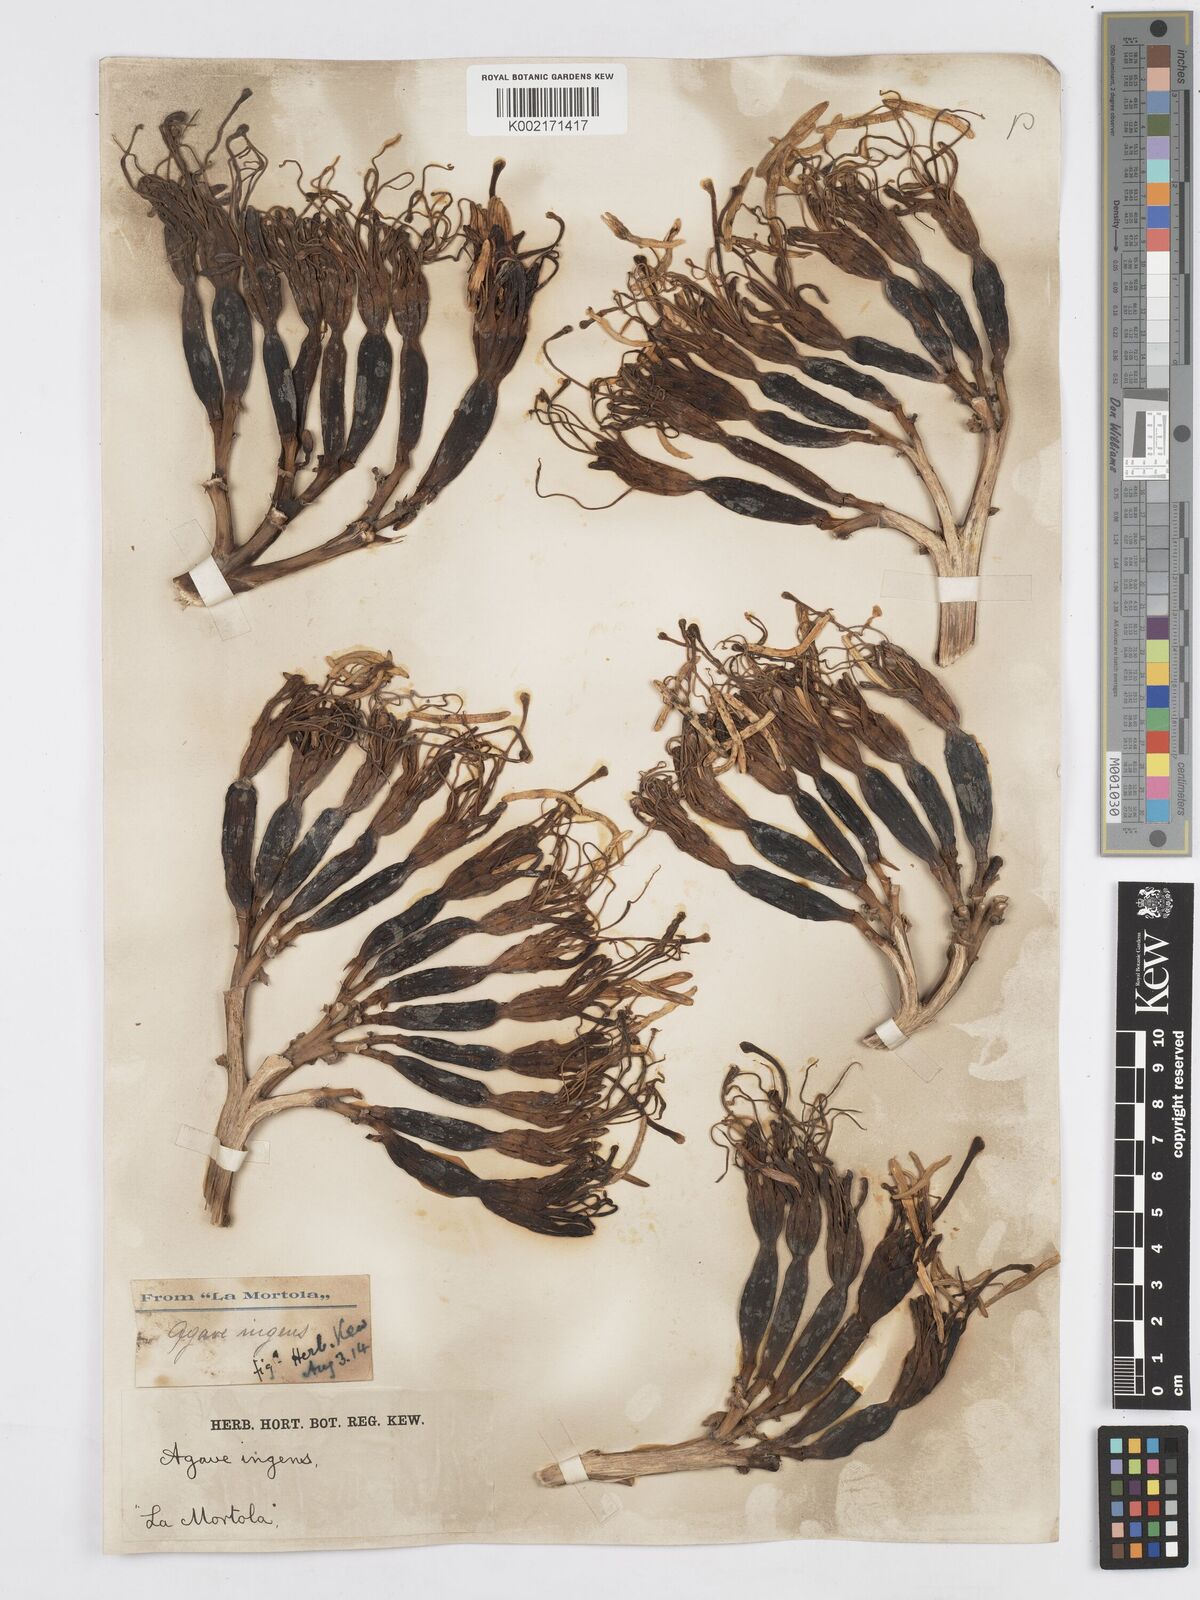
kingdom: Plantae
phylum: Tracheophyta
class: Liliopsida
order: Asparagales
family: Asparagaceae
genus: Agave
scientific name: Agave americana
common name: Centuryplant
